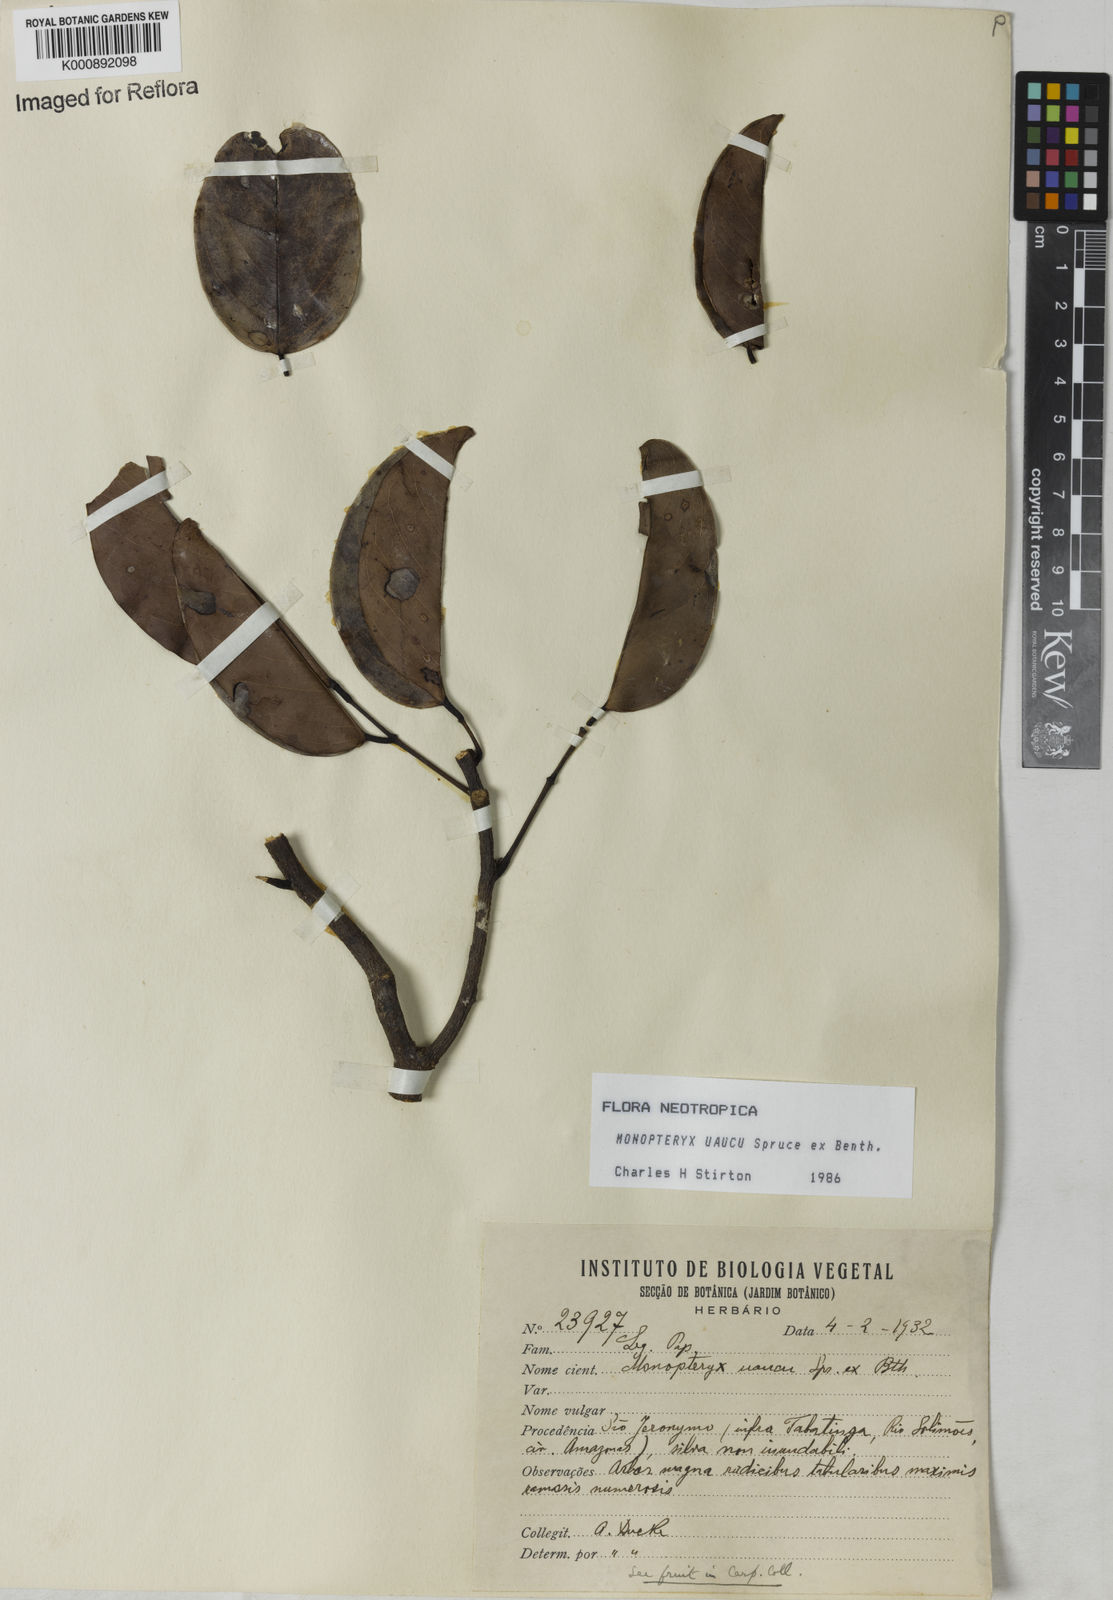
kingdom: Plantae
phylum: Tracheophyta
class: Magnoliopsida
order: Fabales
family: Fabaceae
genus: Monopteryx
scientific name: Monopteryx uaucu
